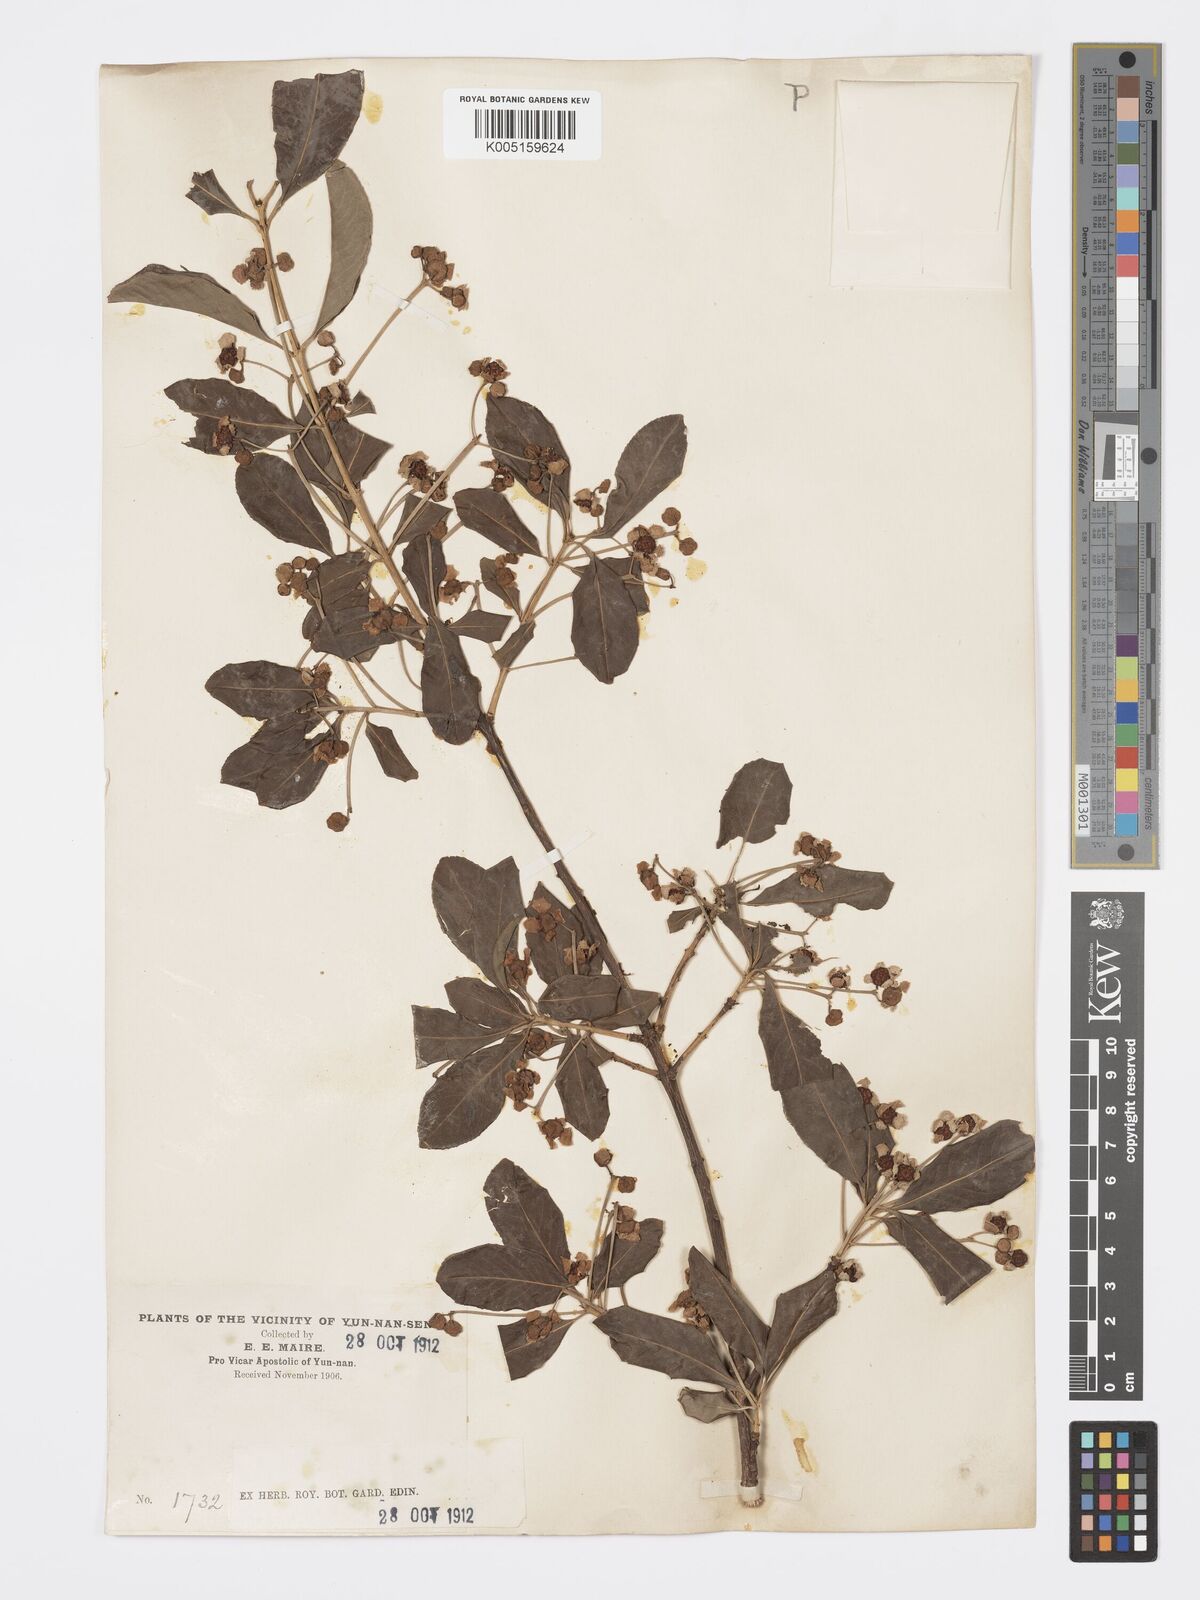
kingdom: Plantae
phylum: Tracheophyta
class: Magnoliopsida
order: Celastrales
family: Celastraceae
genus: Euonymus
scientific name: Euonymus grandiflorus
